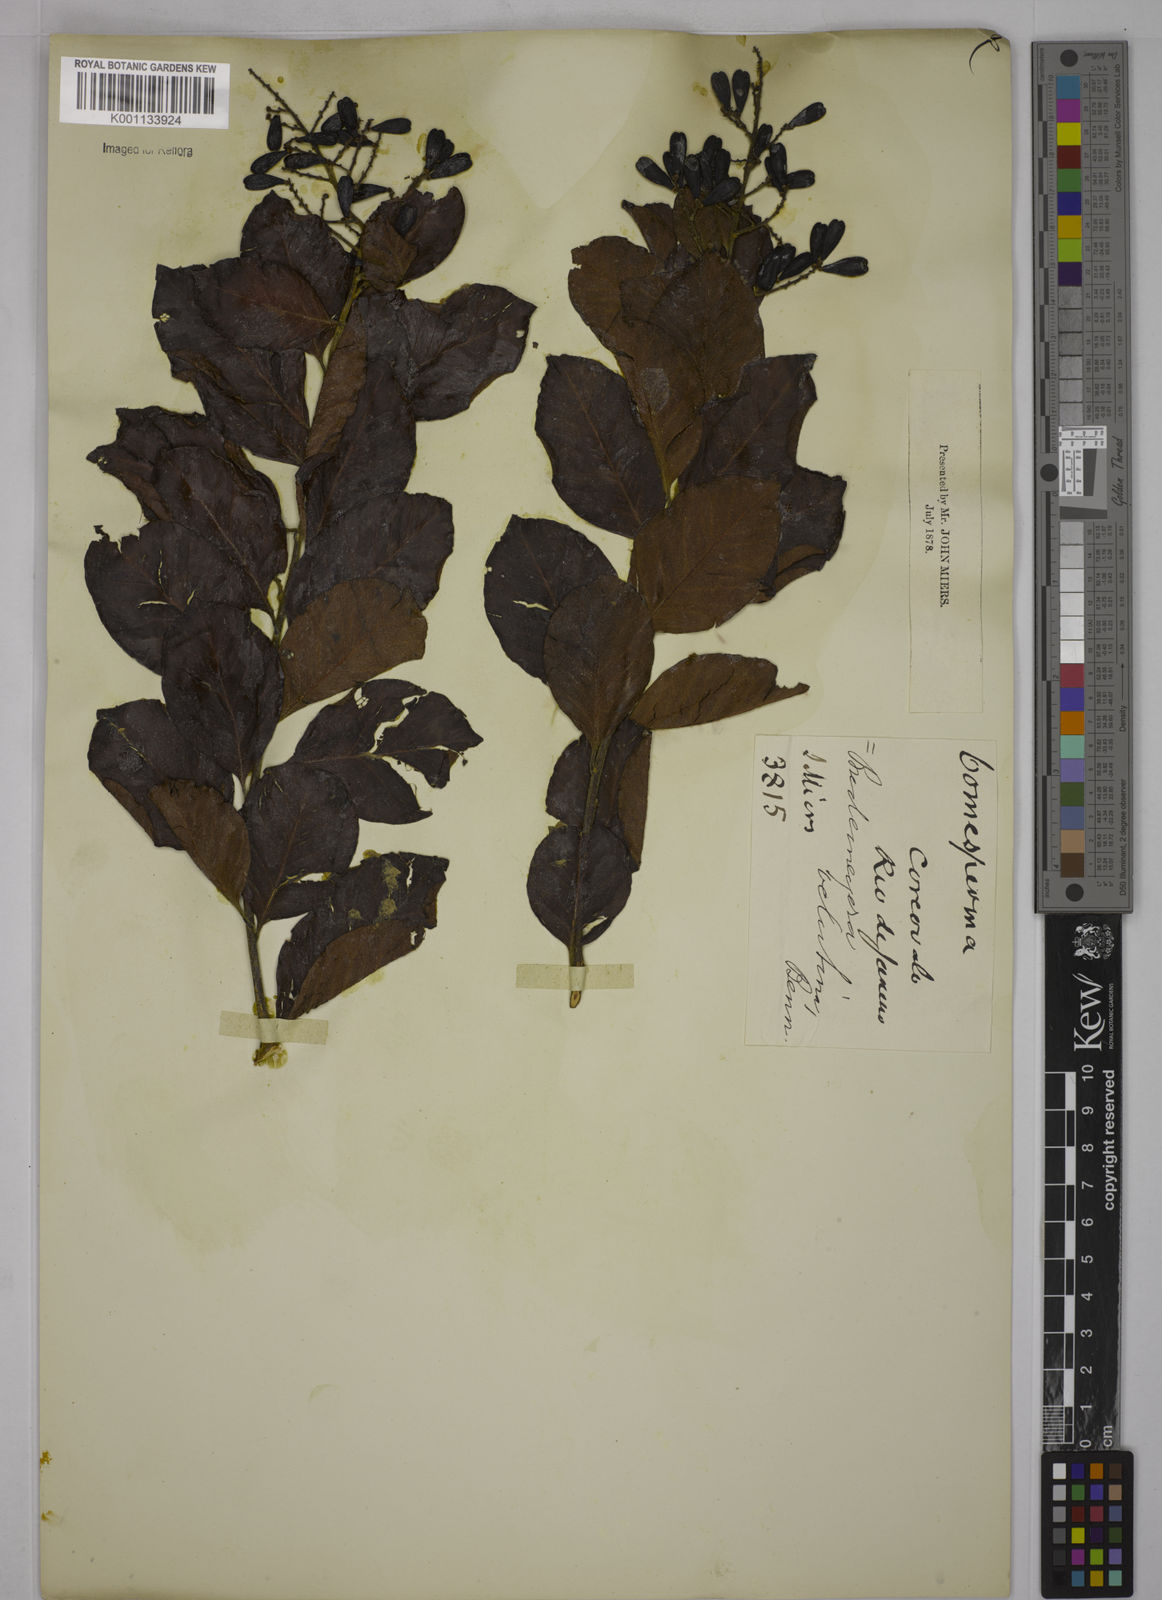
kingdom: Plantae
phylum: Tracheophyta
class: Magnoliopsida
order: Fabales
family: Polygalaceae
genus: Bredemeyera
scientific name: Bredemeyera hebeclada
